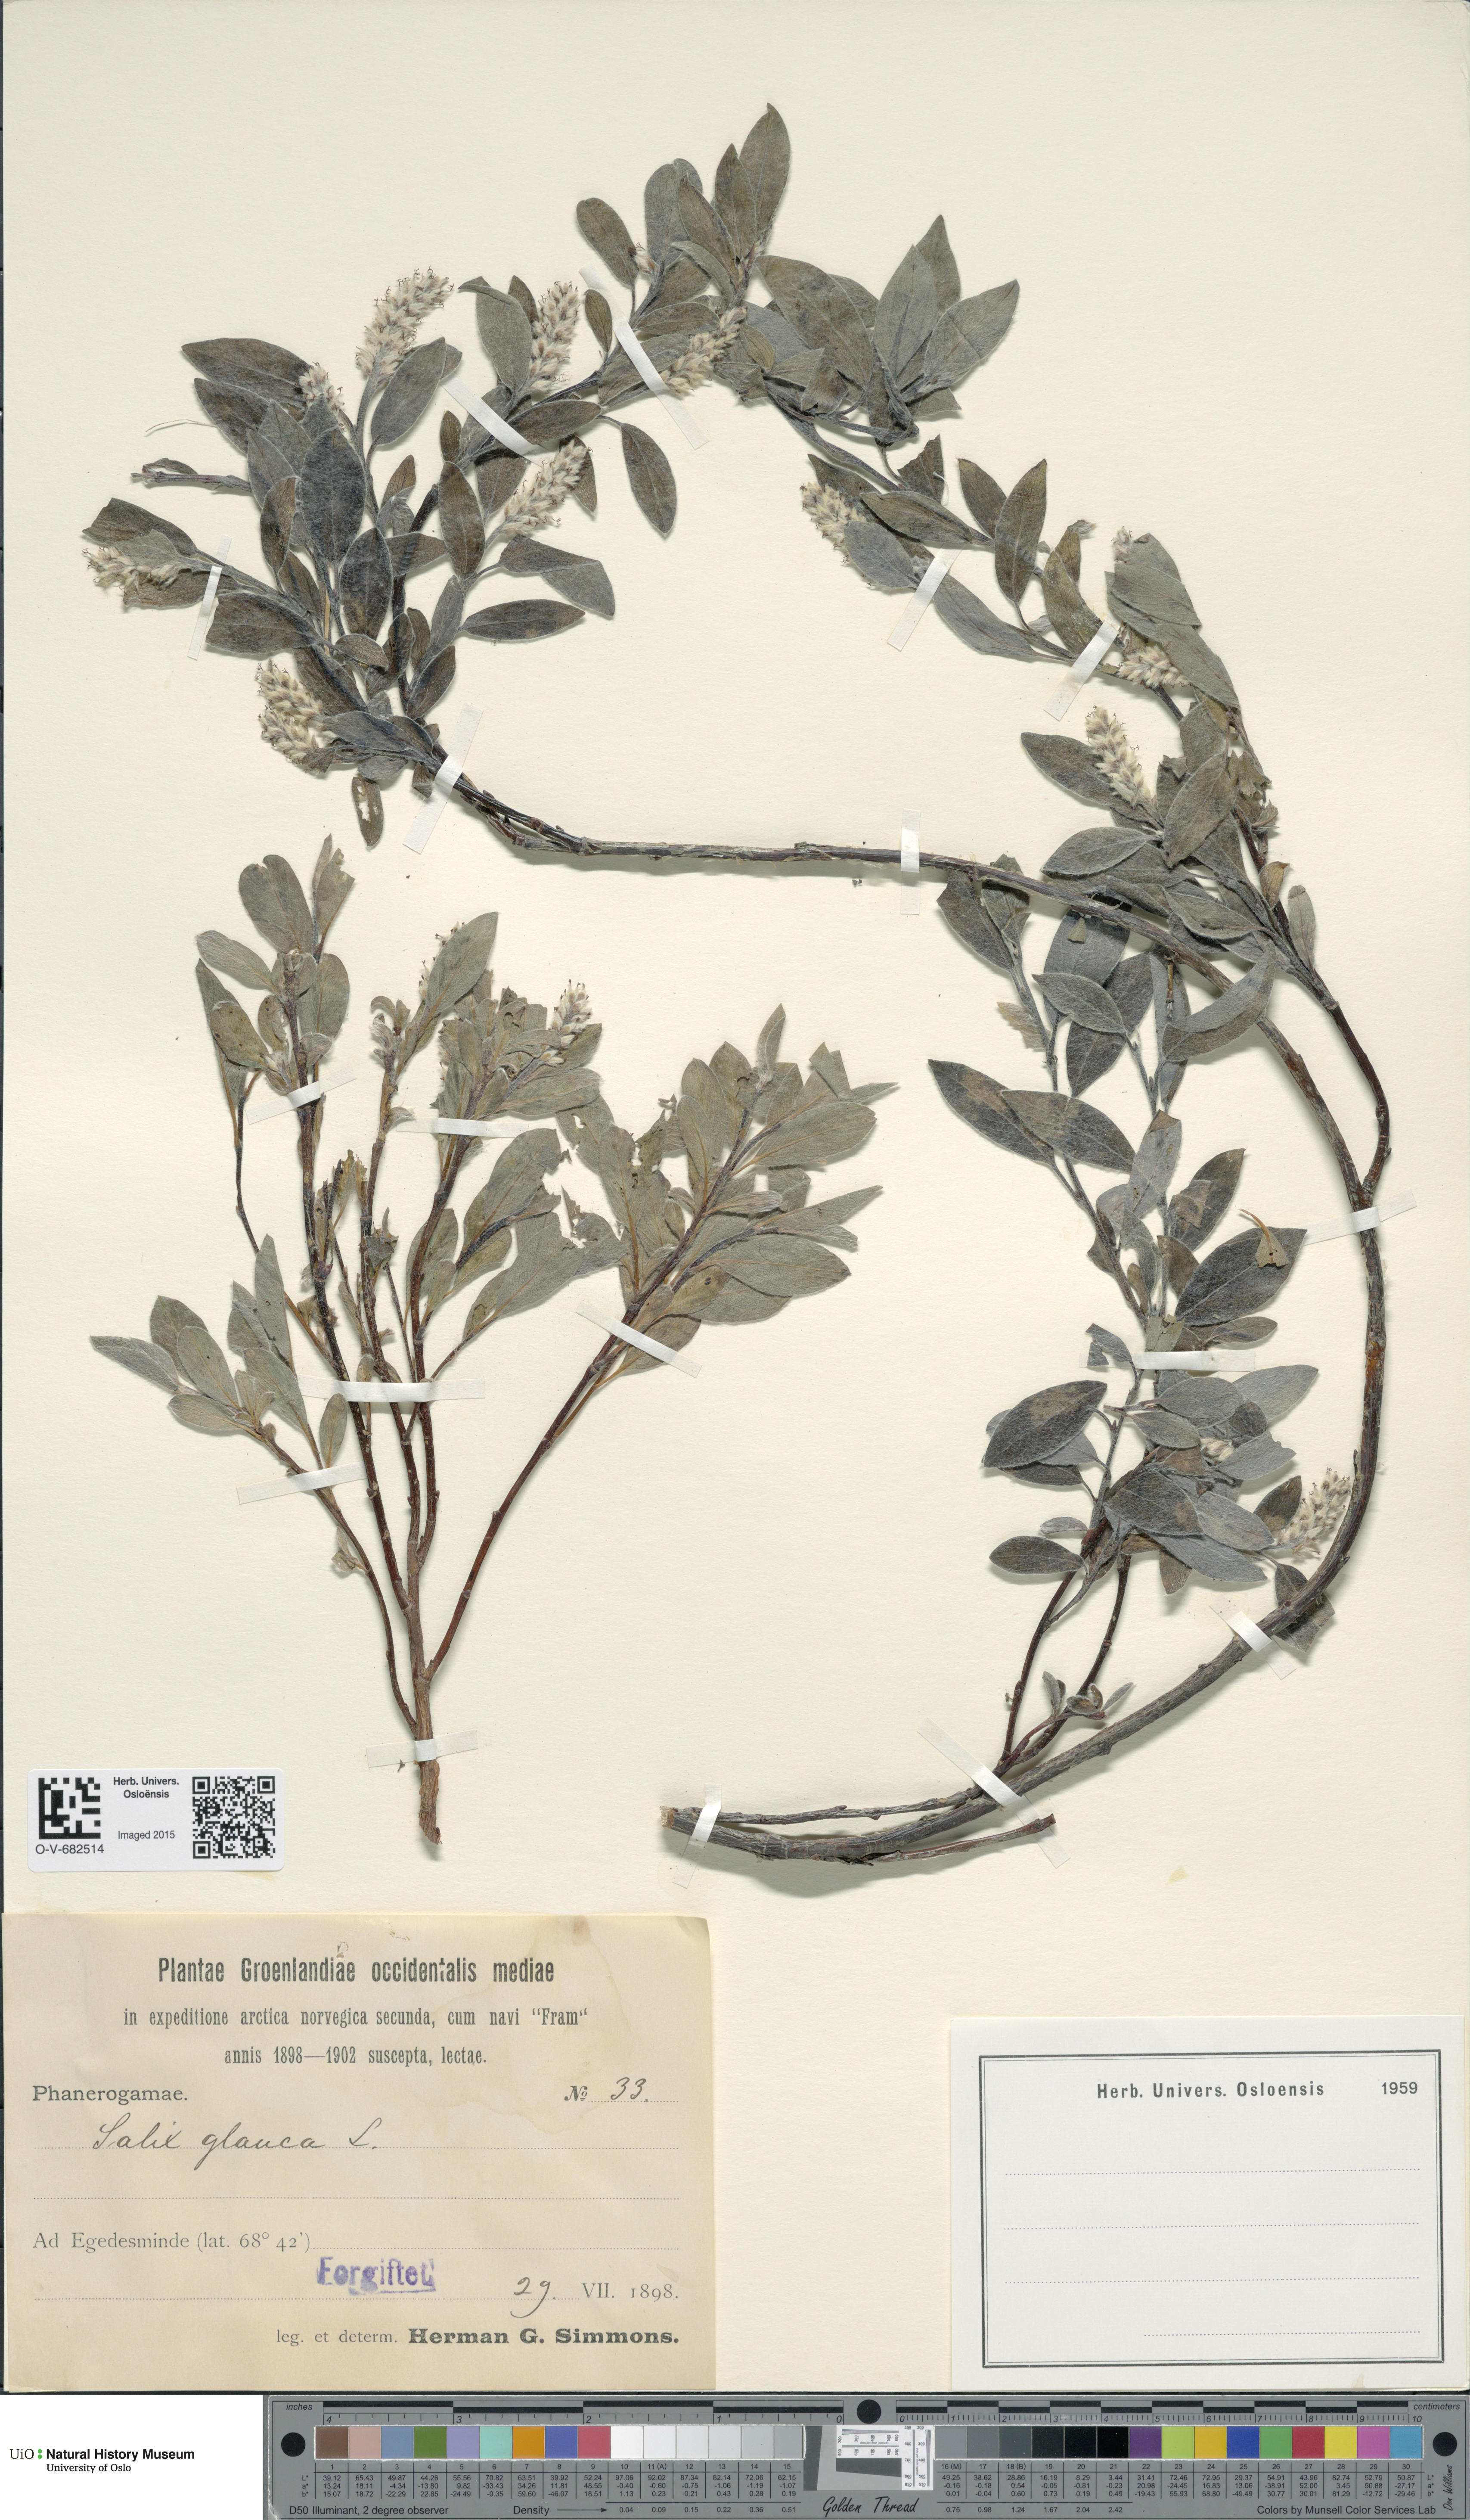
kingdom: Plantae
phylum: Tracheophyta
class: Magnoliopsida
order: Malpighiales
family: Salicaceae
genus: Salix
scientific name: Salix glauca
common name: Glaucous willow
